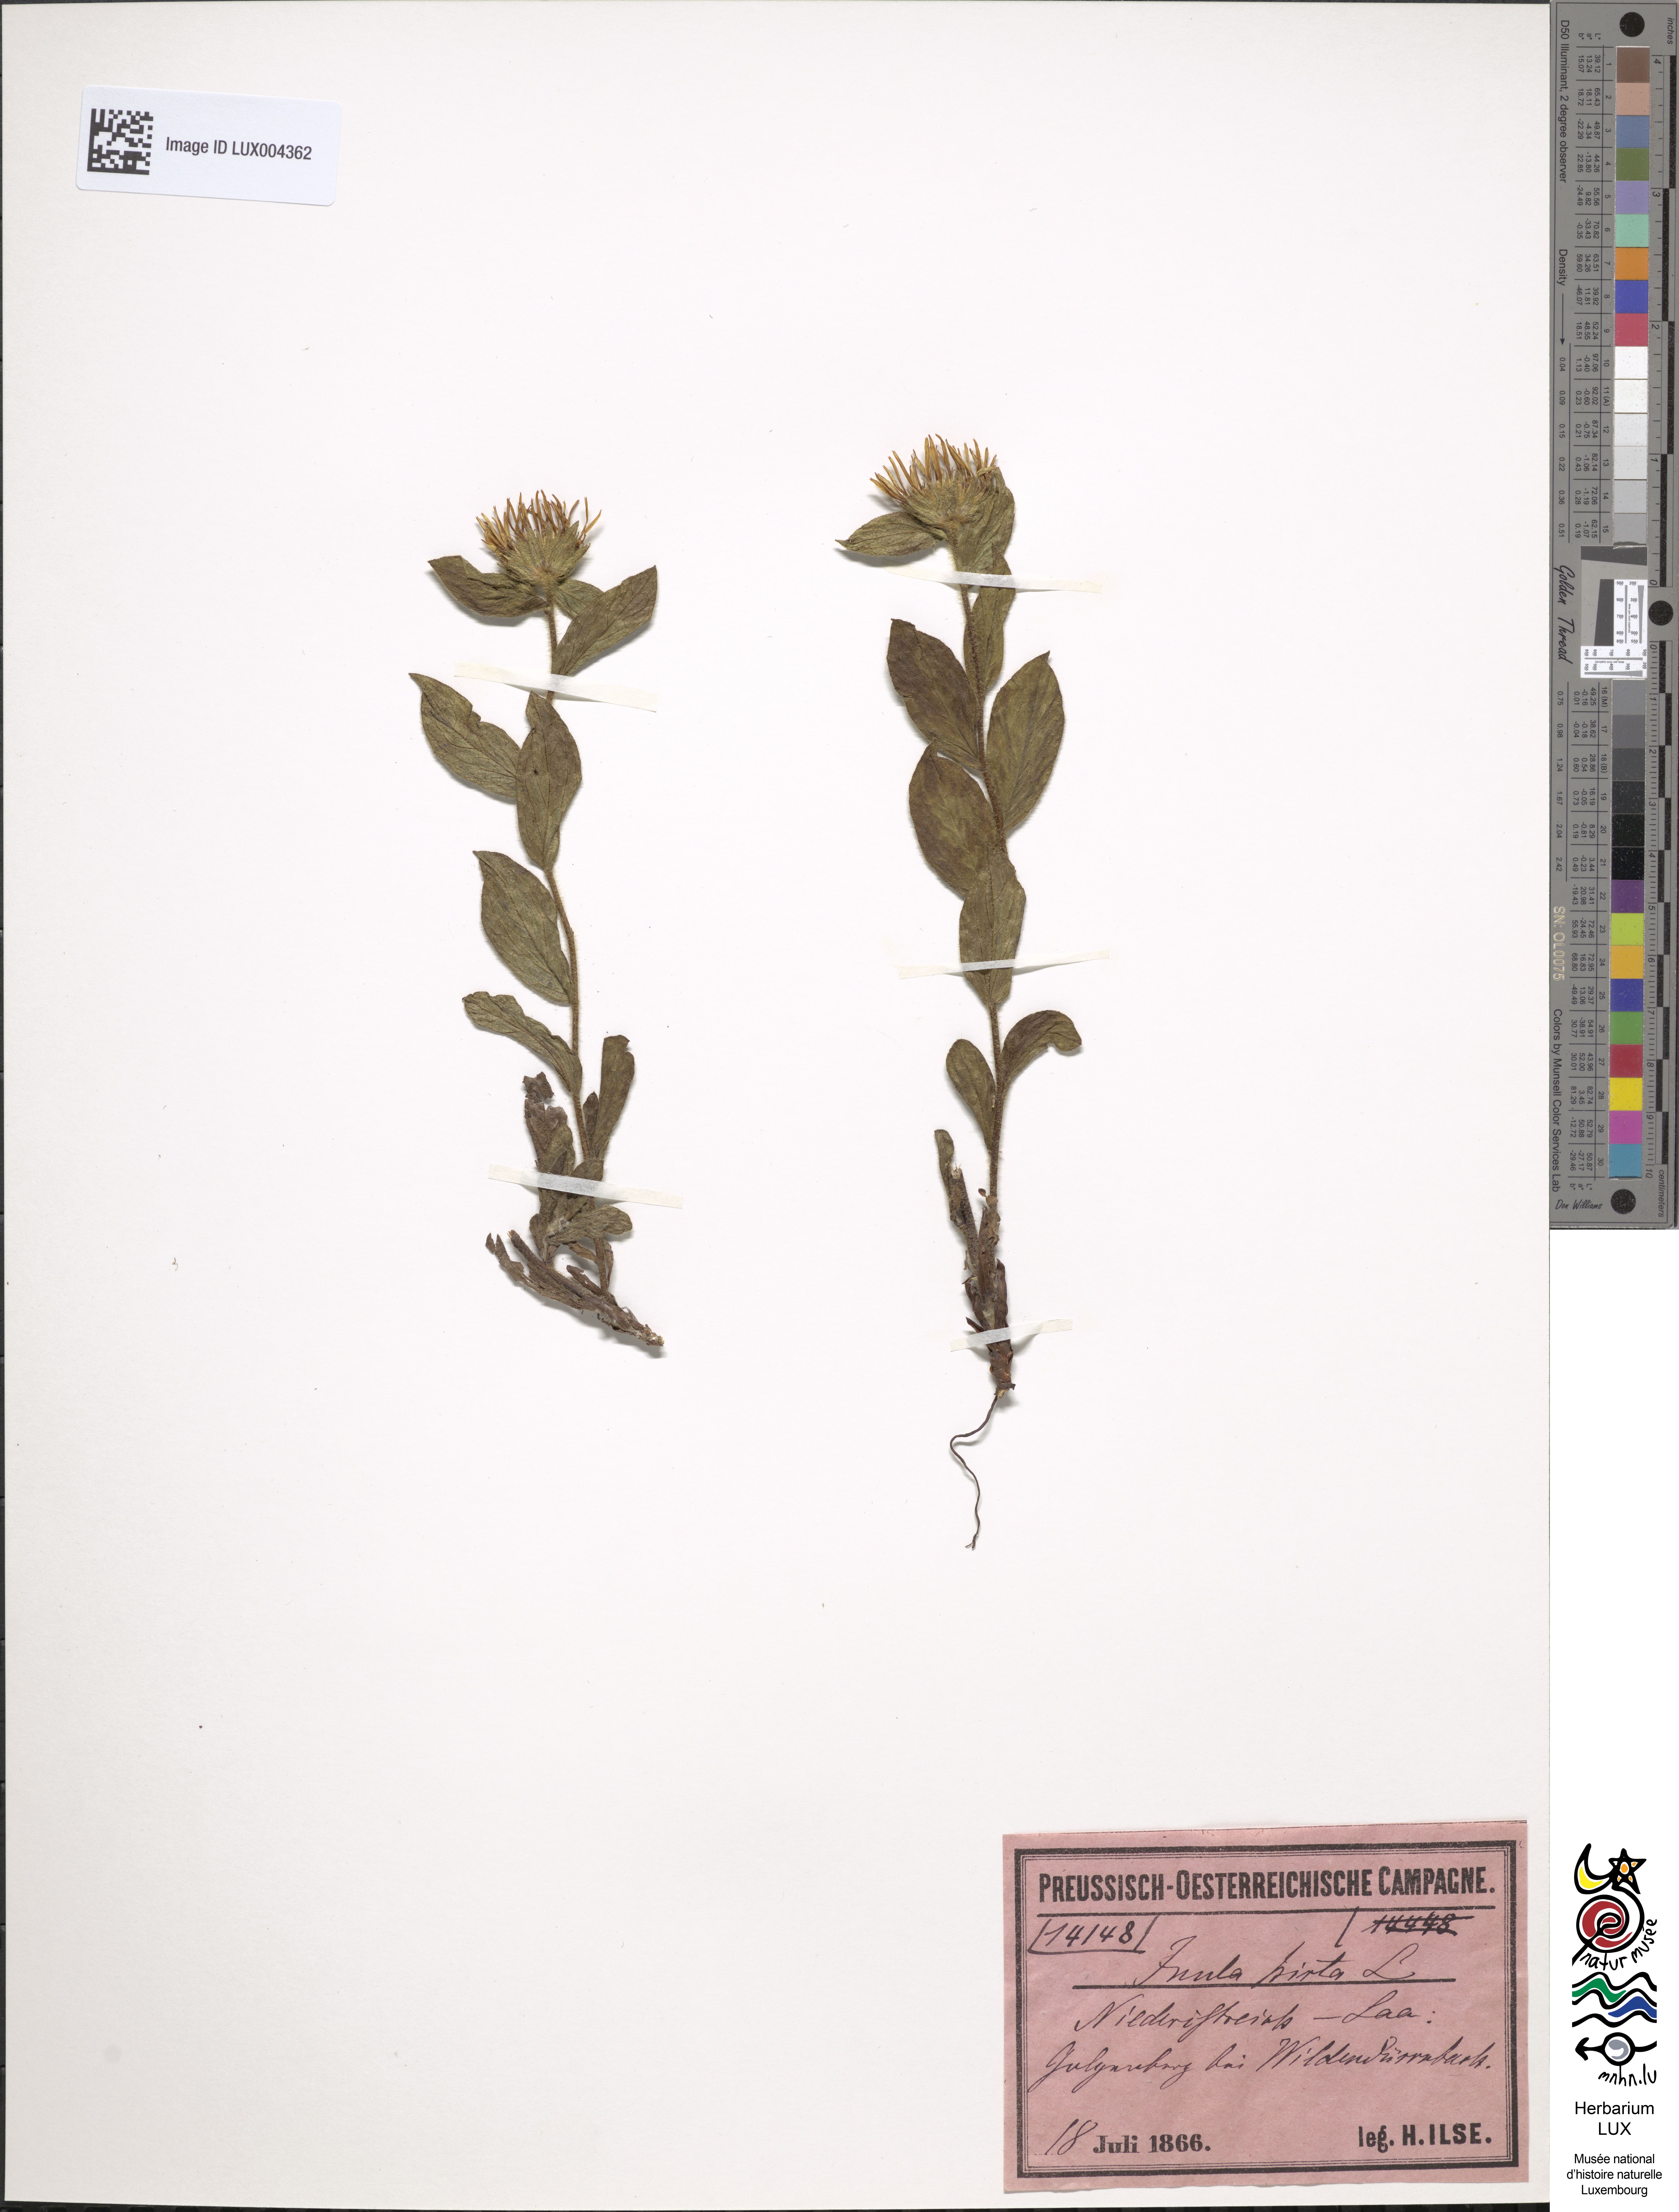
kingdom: Plantae
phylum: Tracheophyta
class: Magnoliopsida
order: Asterales
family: Asteraceae
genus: Pentanema
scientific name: Pentanema hirtum
